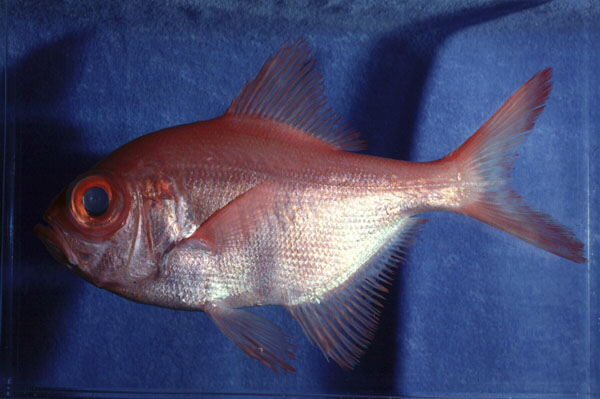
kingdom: Animalia
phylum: Chordata
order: Beryciformes
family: Berycidae
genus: Beryx
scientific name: Beryx decadactylus
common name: Alfonsino
